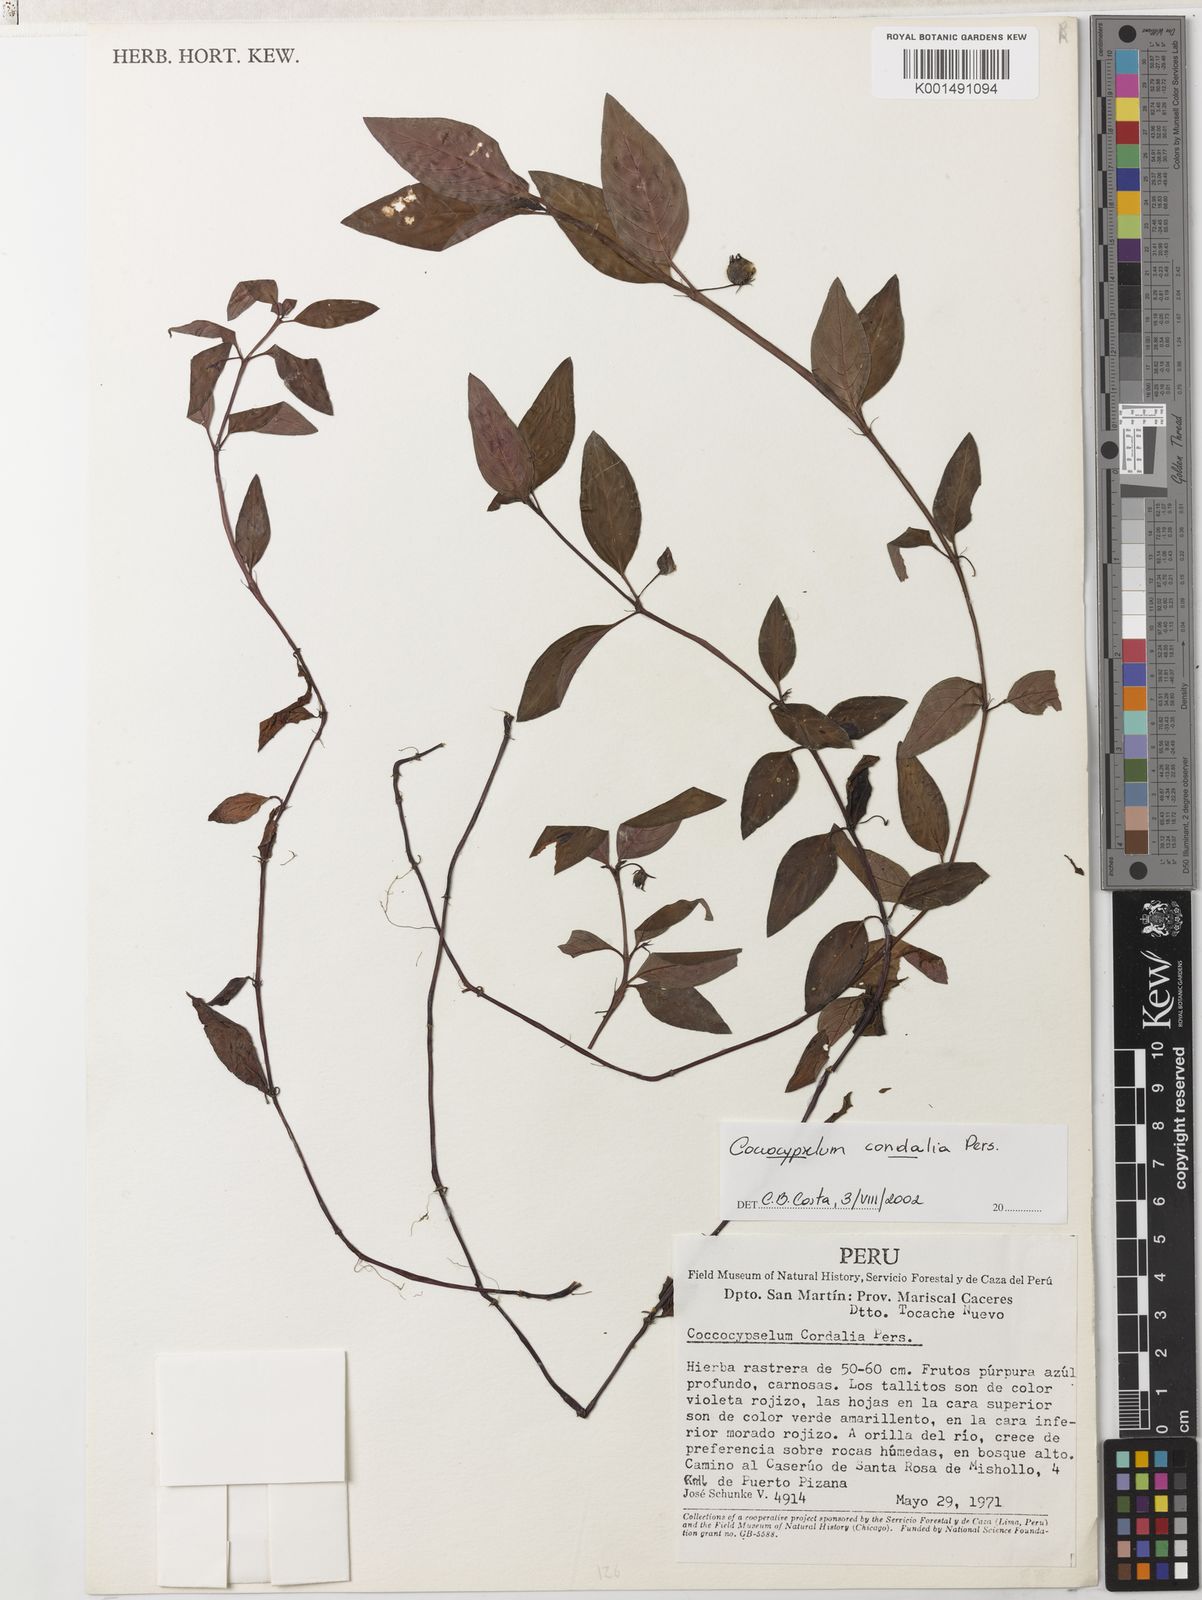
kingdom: Plantae
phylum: Tracheophyta
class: Magnoliopsida
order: Gentianales
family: Rubiaceae
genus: Coccocypselum
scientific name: Coccocypselum condalia
